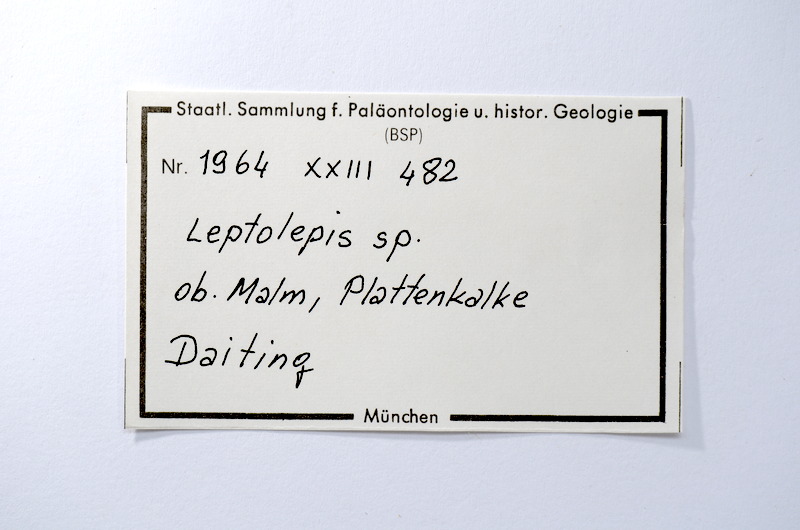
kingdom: Animalia
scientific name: Animalia
